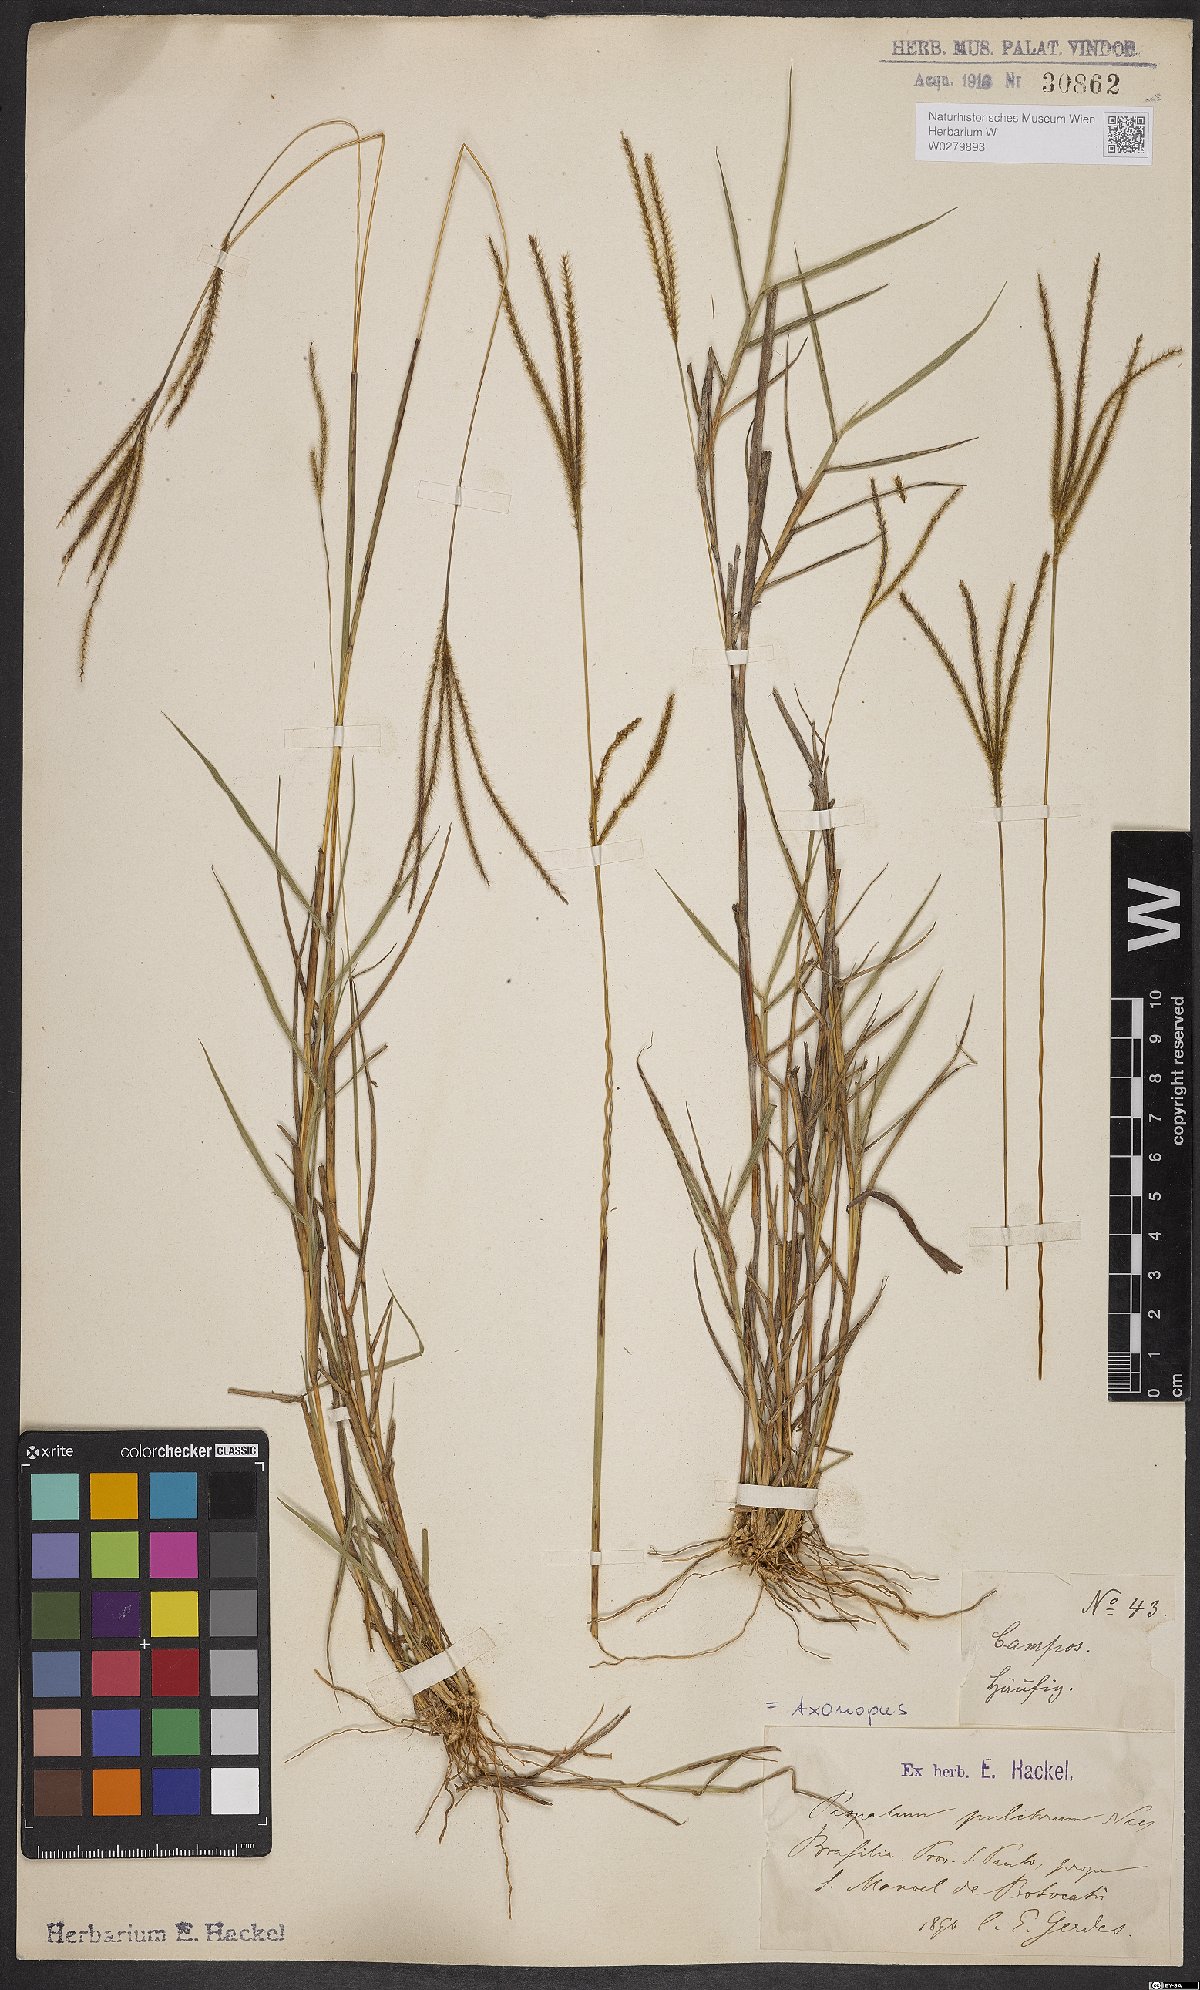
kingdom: Plantae
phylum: Tracheophyta
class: Liliopsida
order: Poales
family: Poaceae
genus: Axonopus
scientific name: Axonopus aureus
